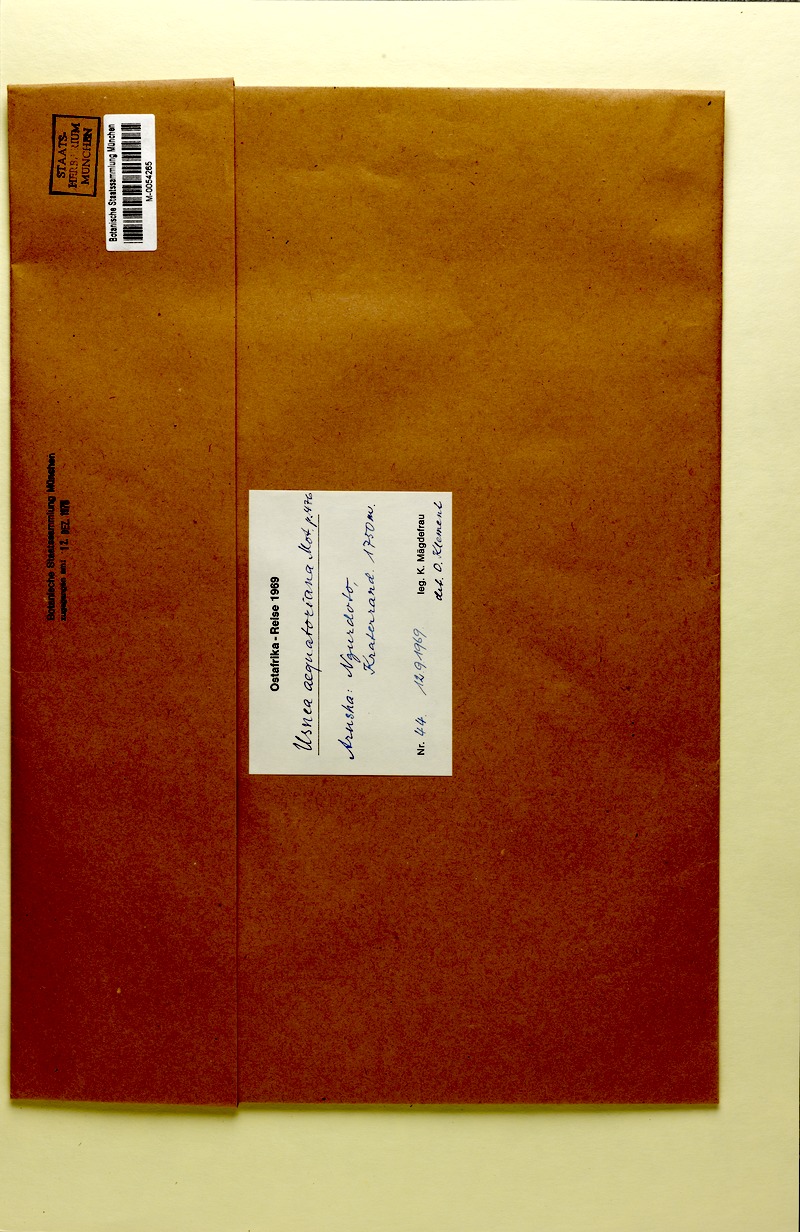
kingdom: Fungi
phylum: Ascomycota
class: Lecanoromycetes
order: Lecanorales
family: Parmeliaceae
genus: Usnea
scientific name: Usnea
